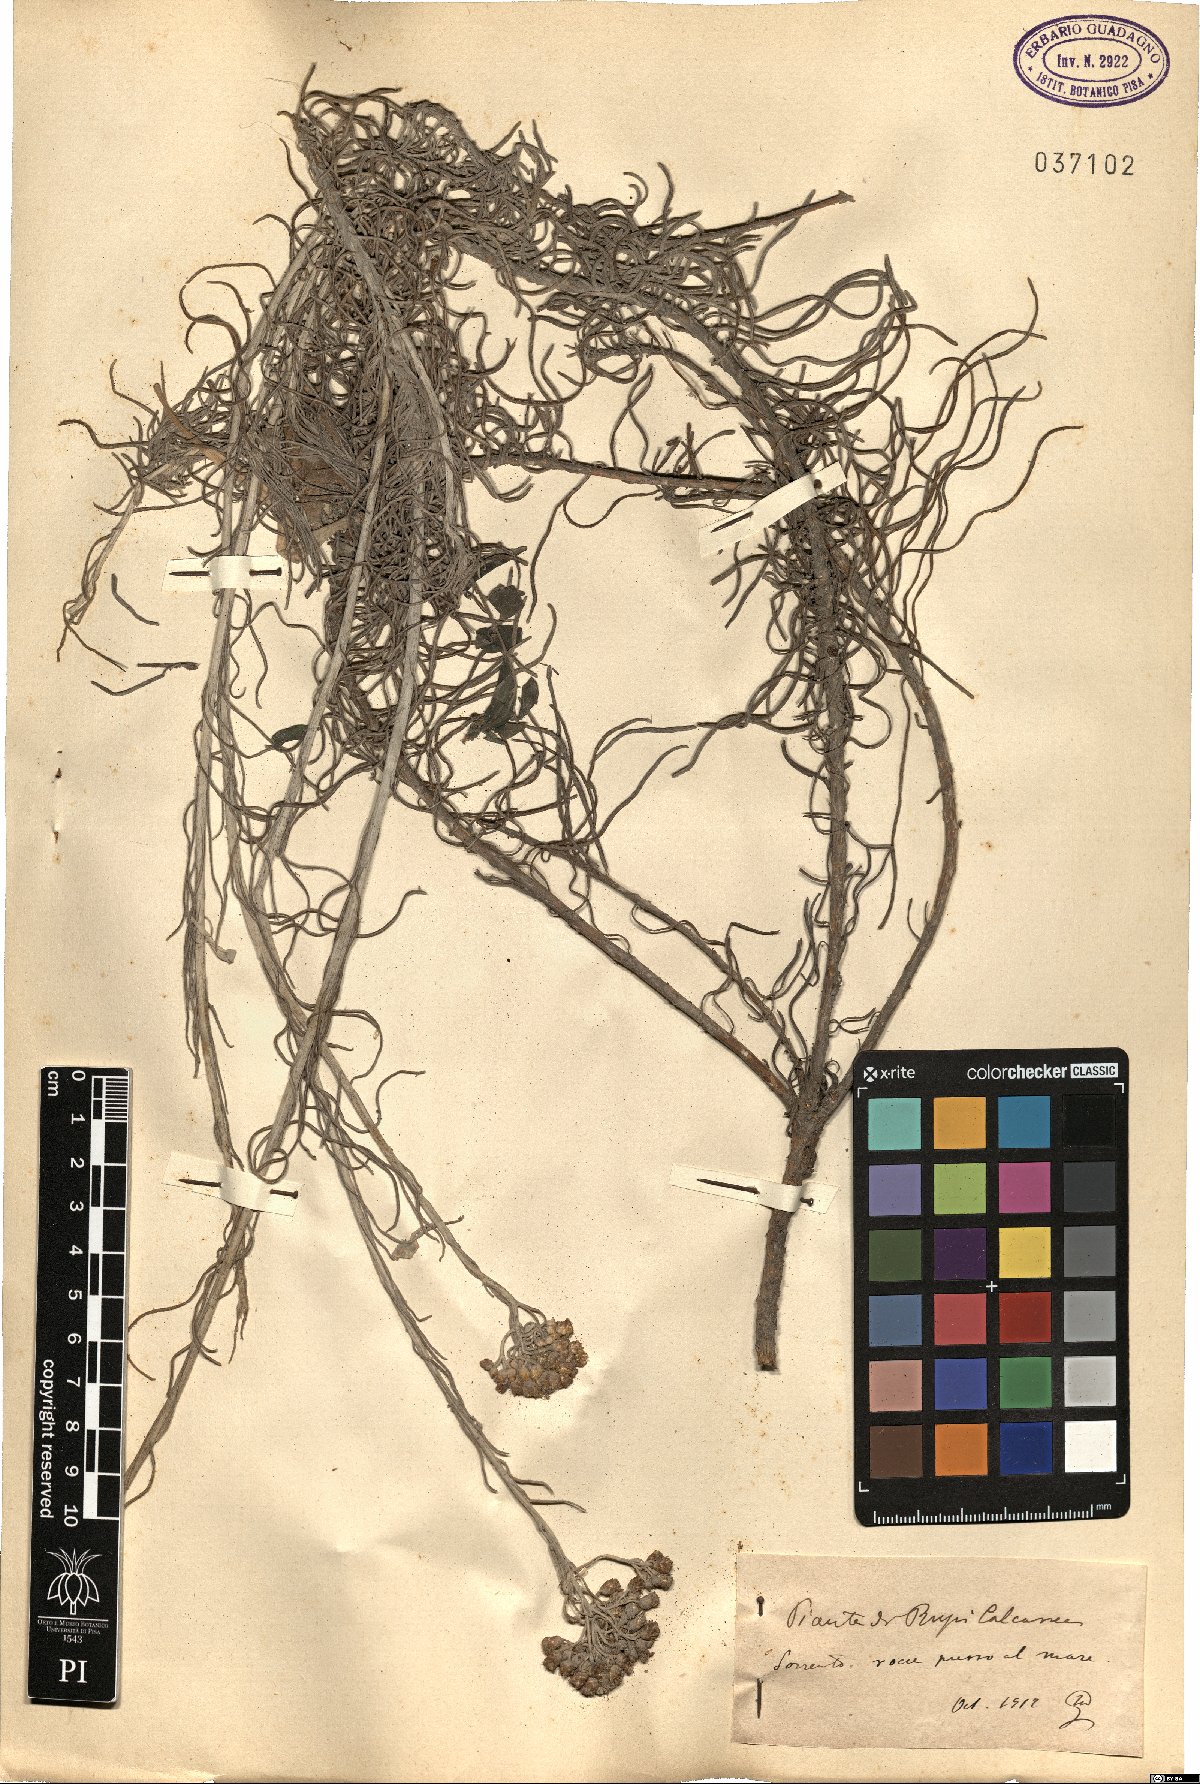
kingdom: Plantae
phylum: Tracheophyta
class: Magnoliopsida
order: Asterales
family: Asteraceae
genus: Helichrysum
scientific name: Helichrysum
